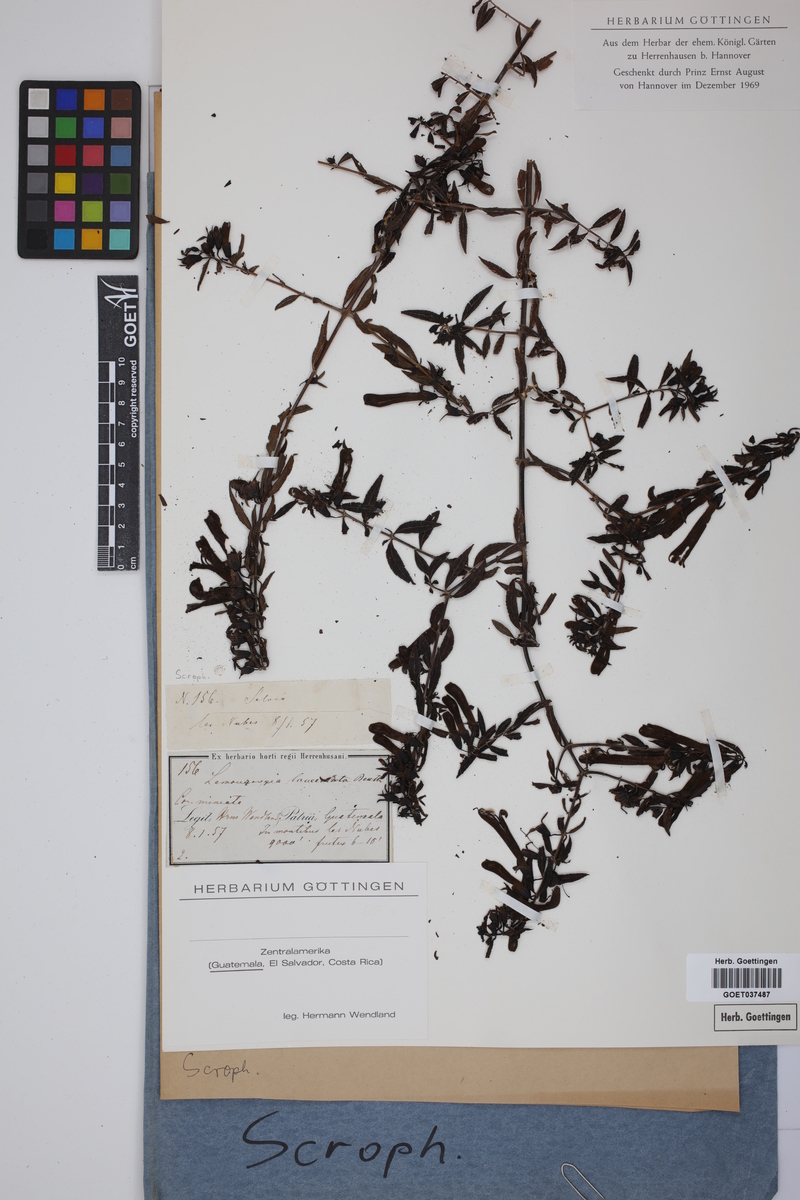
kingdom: Plantae
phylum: Tracheophyta
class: Magnoliopsida
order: Lamiales
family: Orobanchaceae
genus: Lamourouxia
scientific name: Lamourouxia lanceolata
